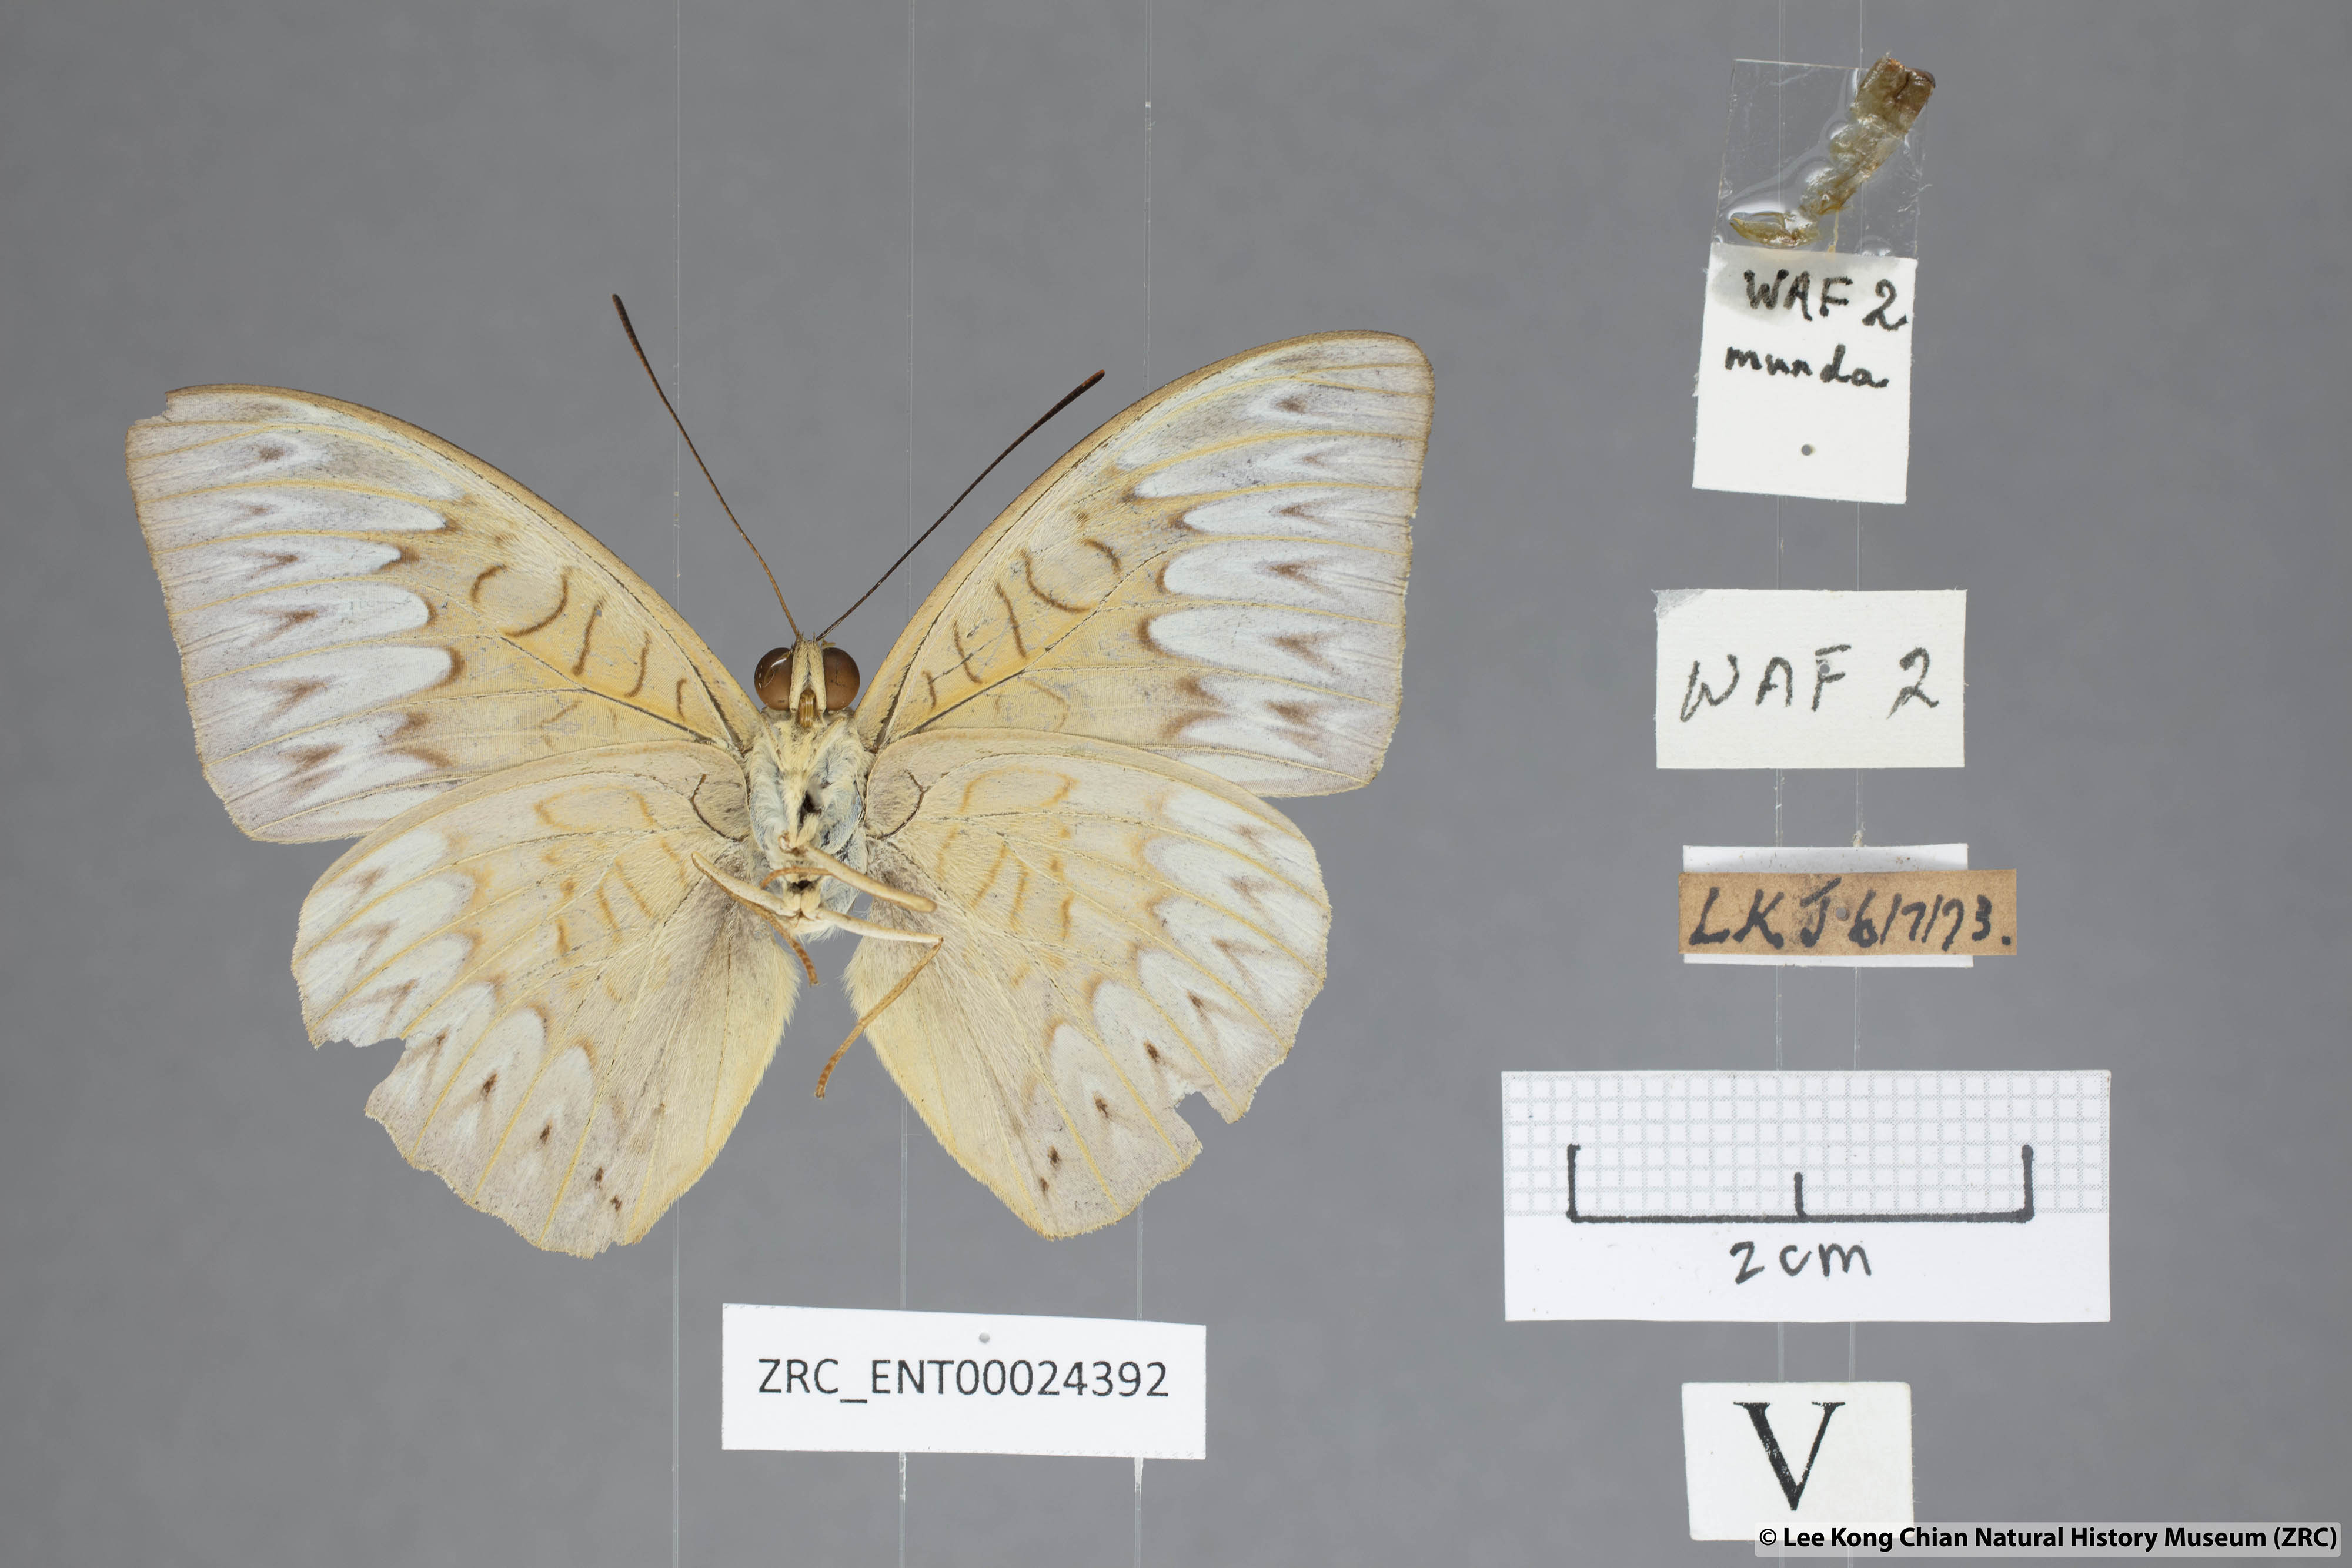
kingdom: Animalia
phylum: Arthropoda
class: Insecta
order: Lepidoptera
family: Nymphalidae
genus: Tanaecia
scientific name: Tanaecia munda
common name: Peninsular viscount
